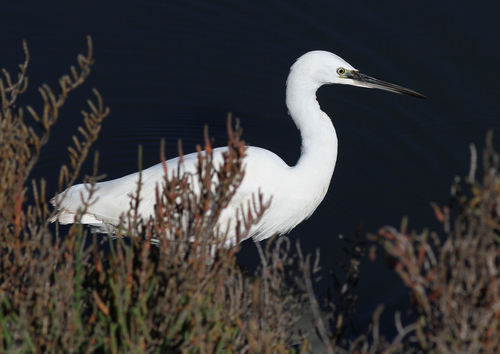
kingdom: Animalia
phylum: Chordata
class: Aves
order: Pelecaniformes
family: Ardeidae
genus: Egretta
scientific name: Egretta garzetta
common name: Little egret
